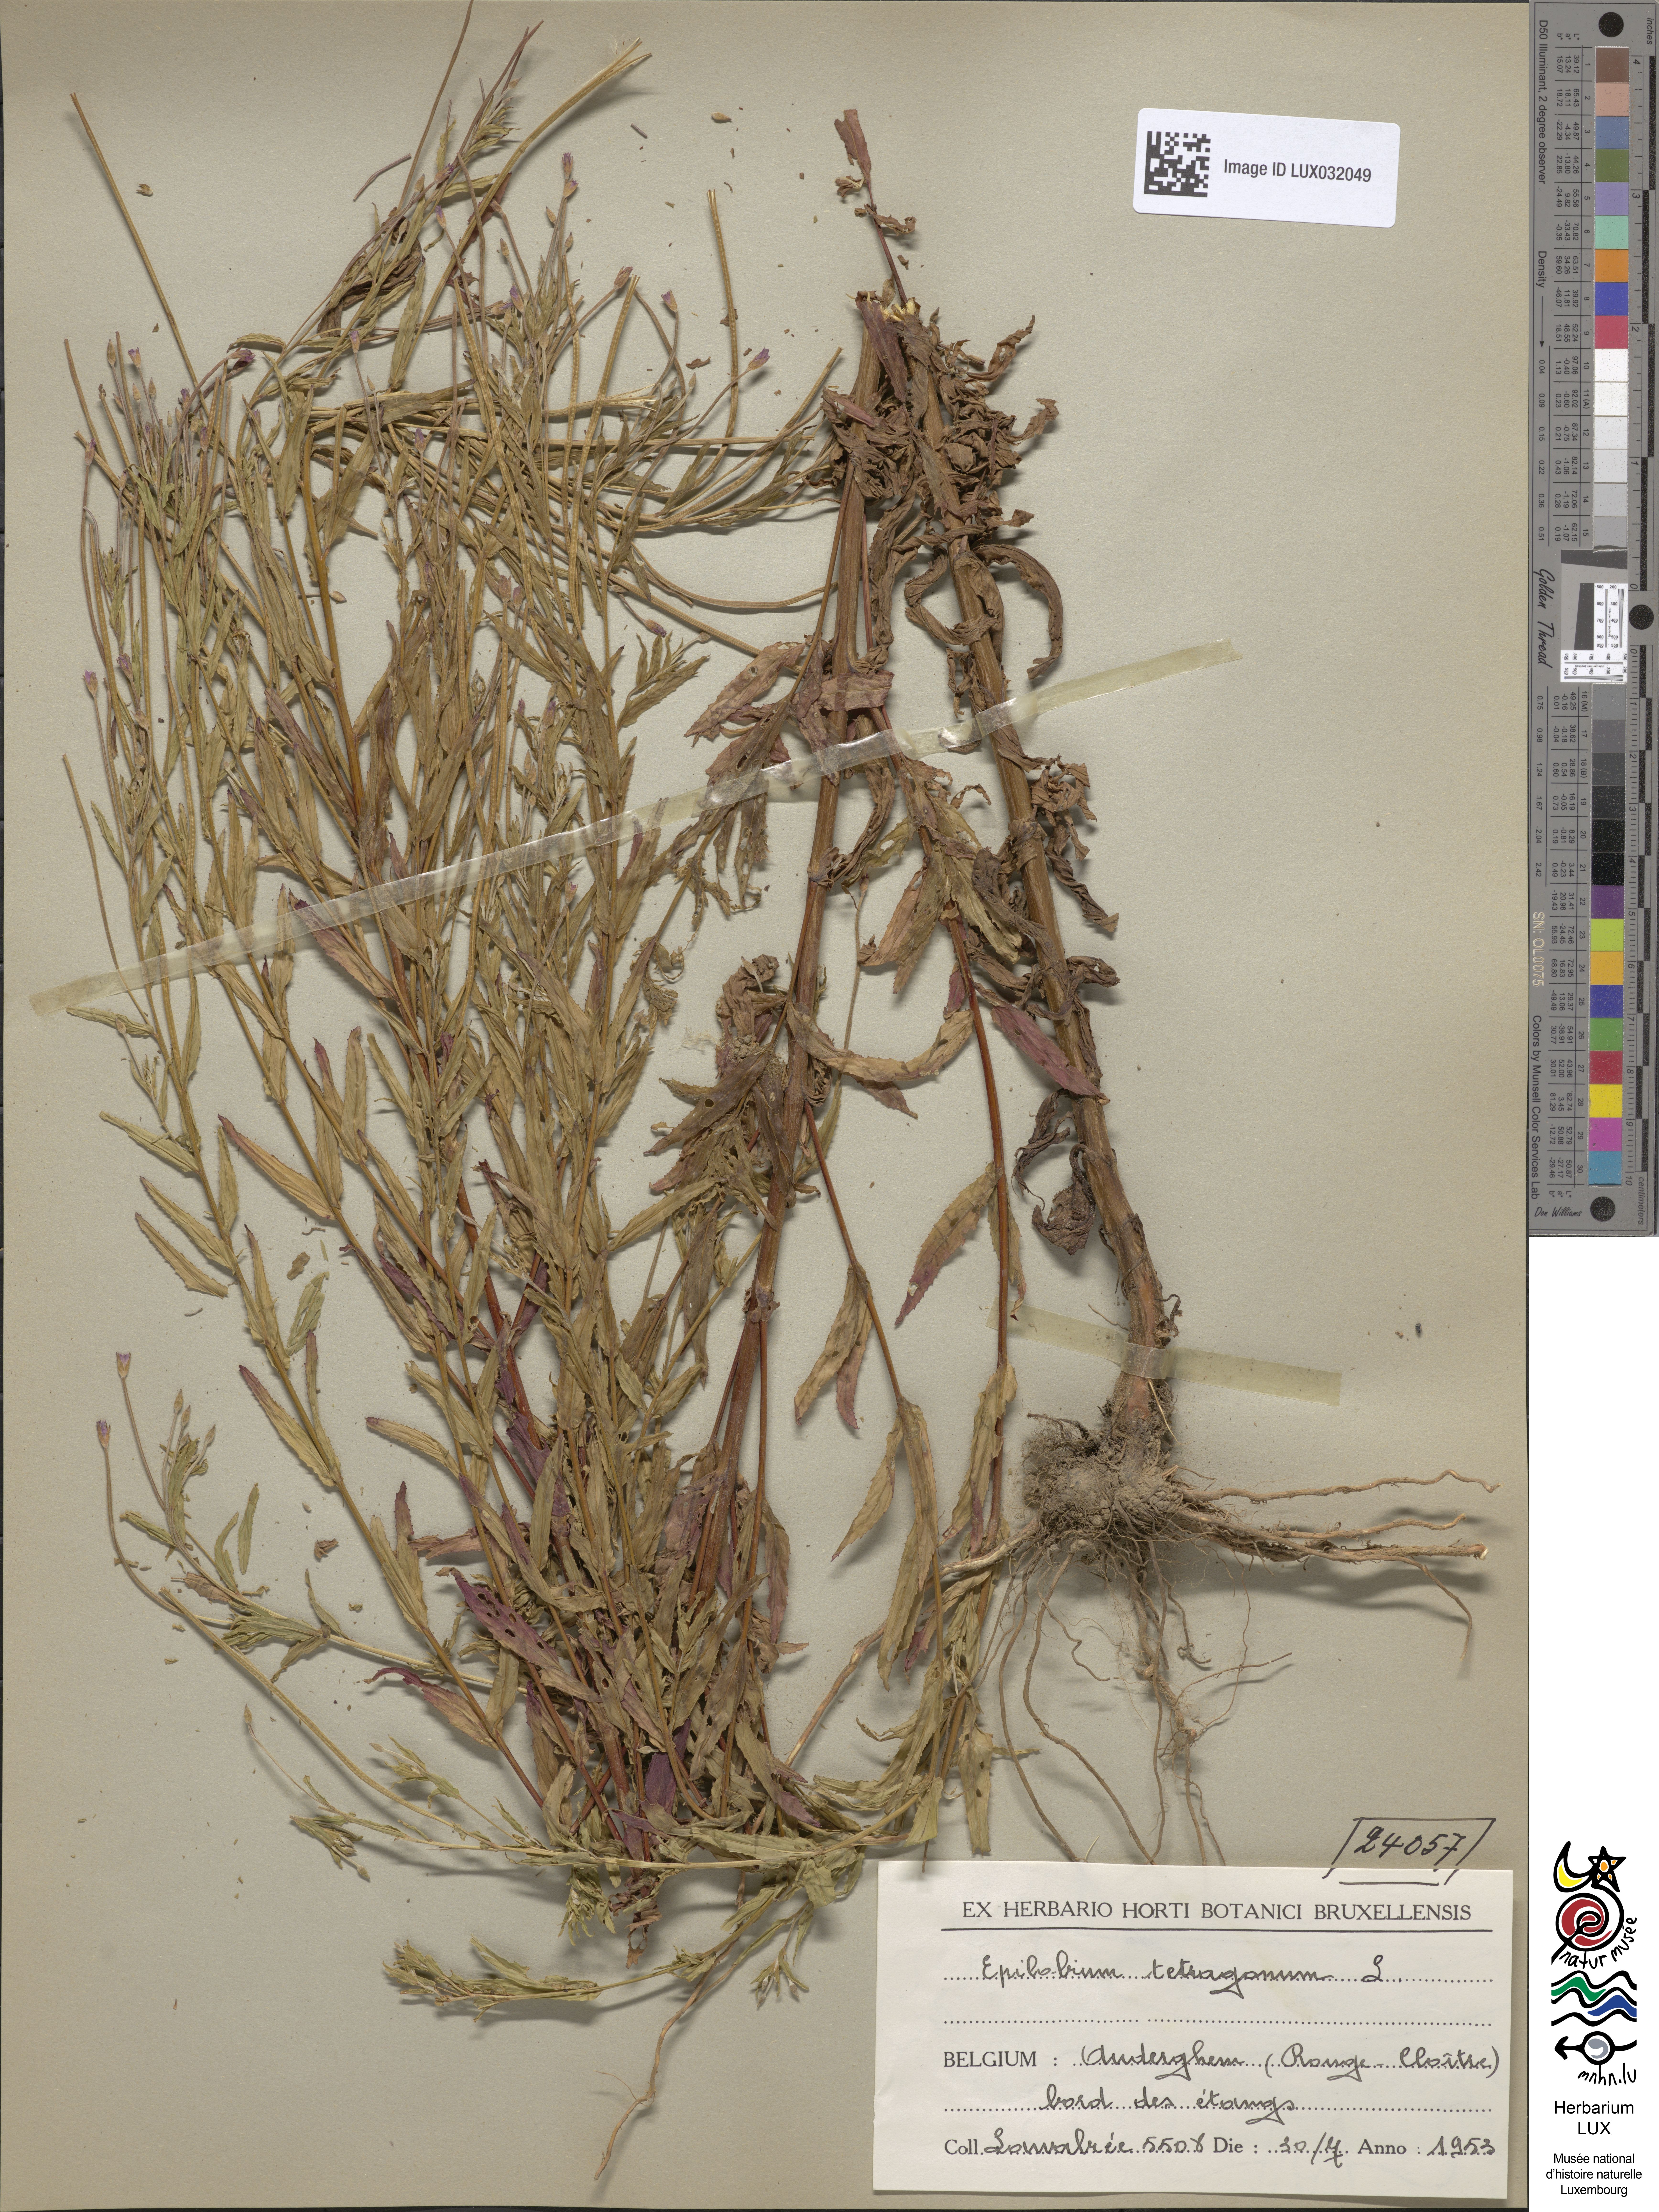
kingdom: Plantae
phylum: Tracheophyta
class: Magnoliopsida
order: Myrtales
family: Onagraceae
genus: Epilobium
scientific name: Epilobium tetragonum
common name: Square-stemmed willowherb
